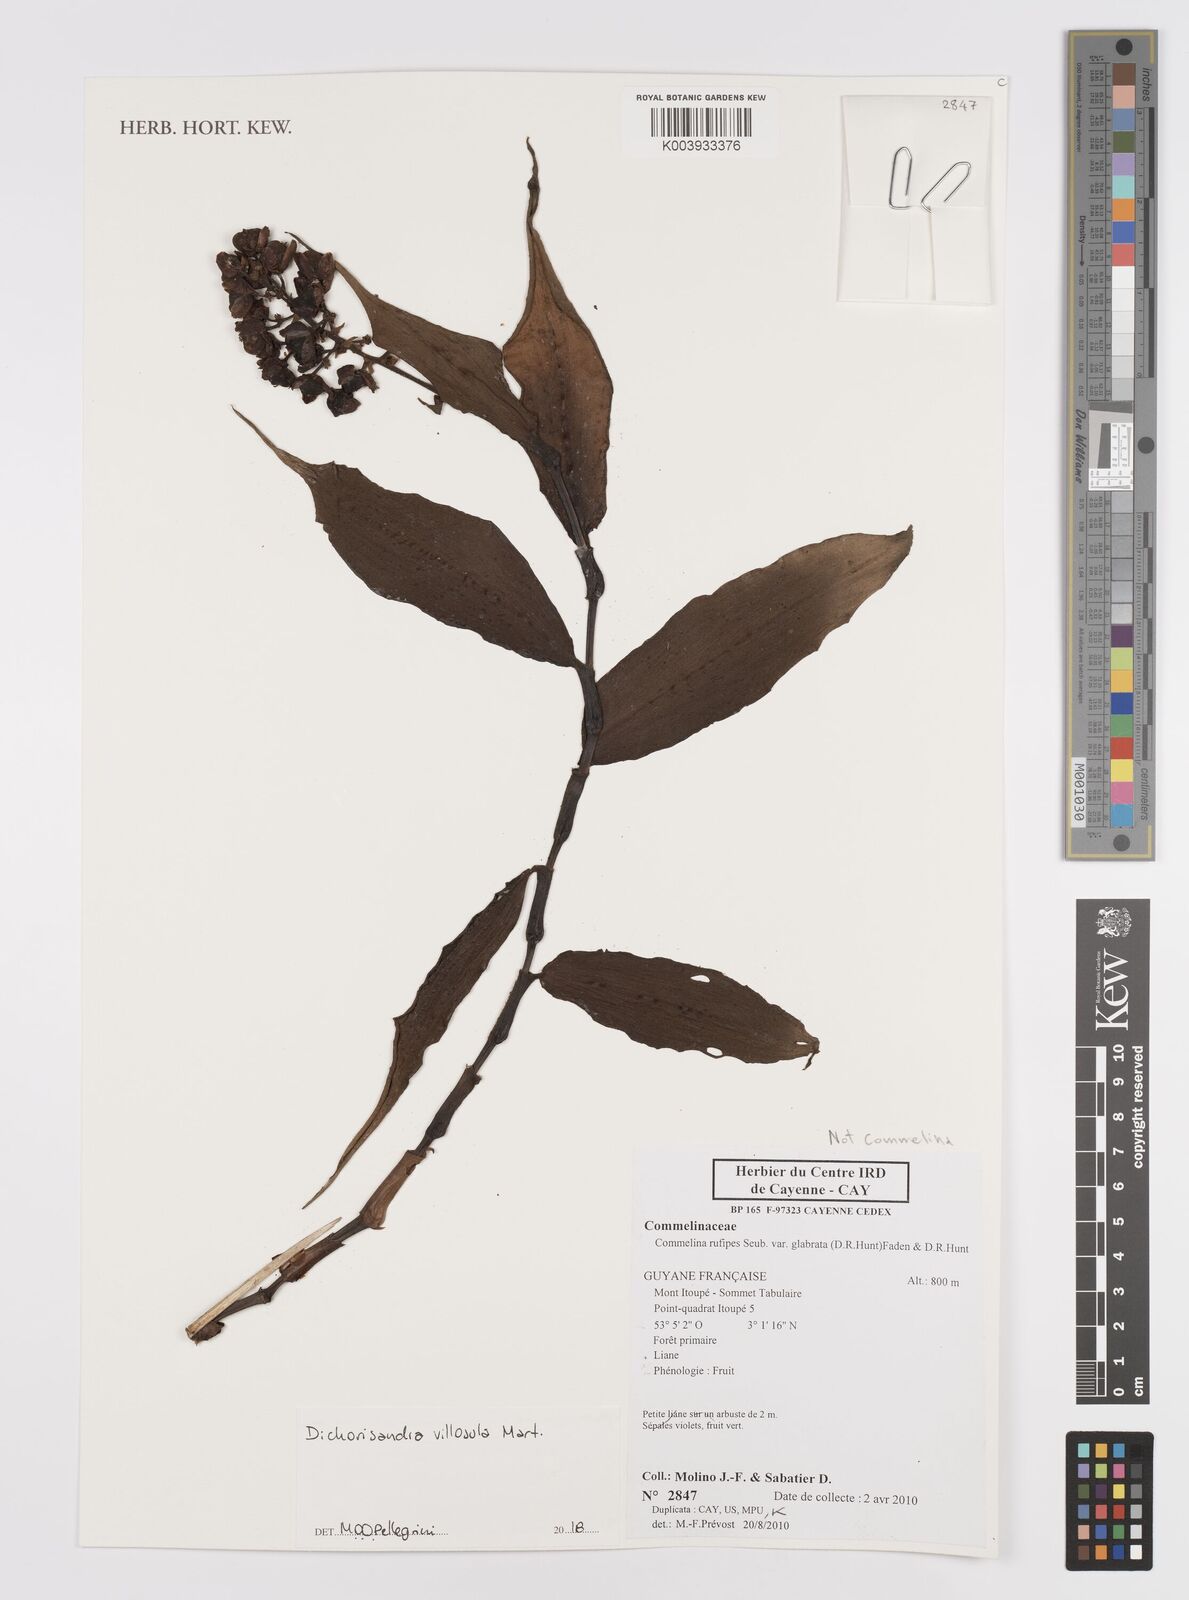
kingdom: Plantae
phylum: Tracheophyta
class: Liliopsida
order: Commelinales
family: Commelinaceae
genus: Dichorisandra
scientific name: Dichorisandra villosula
